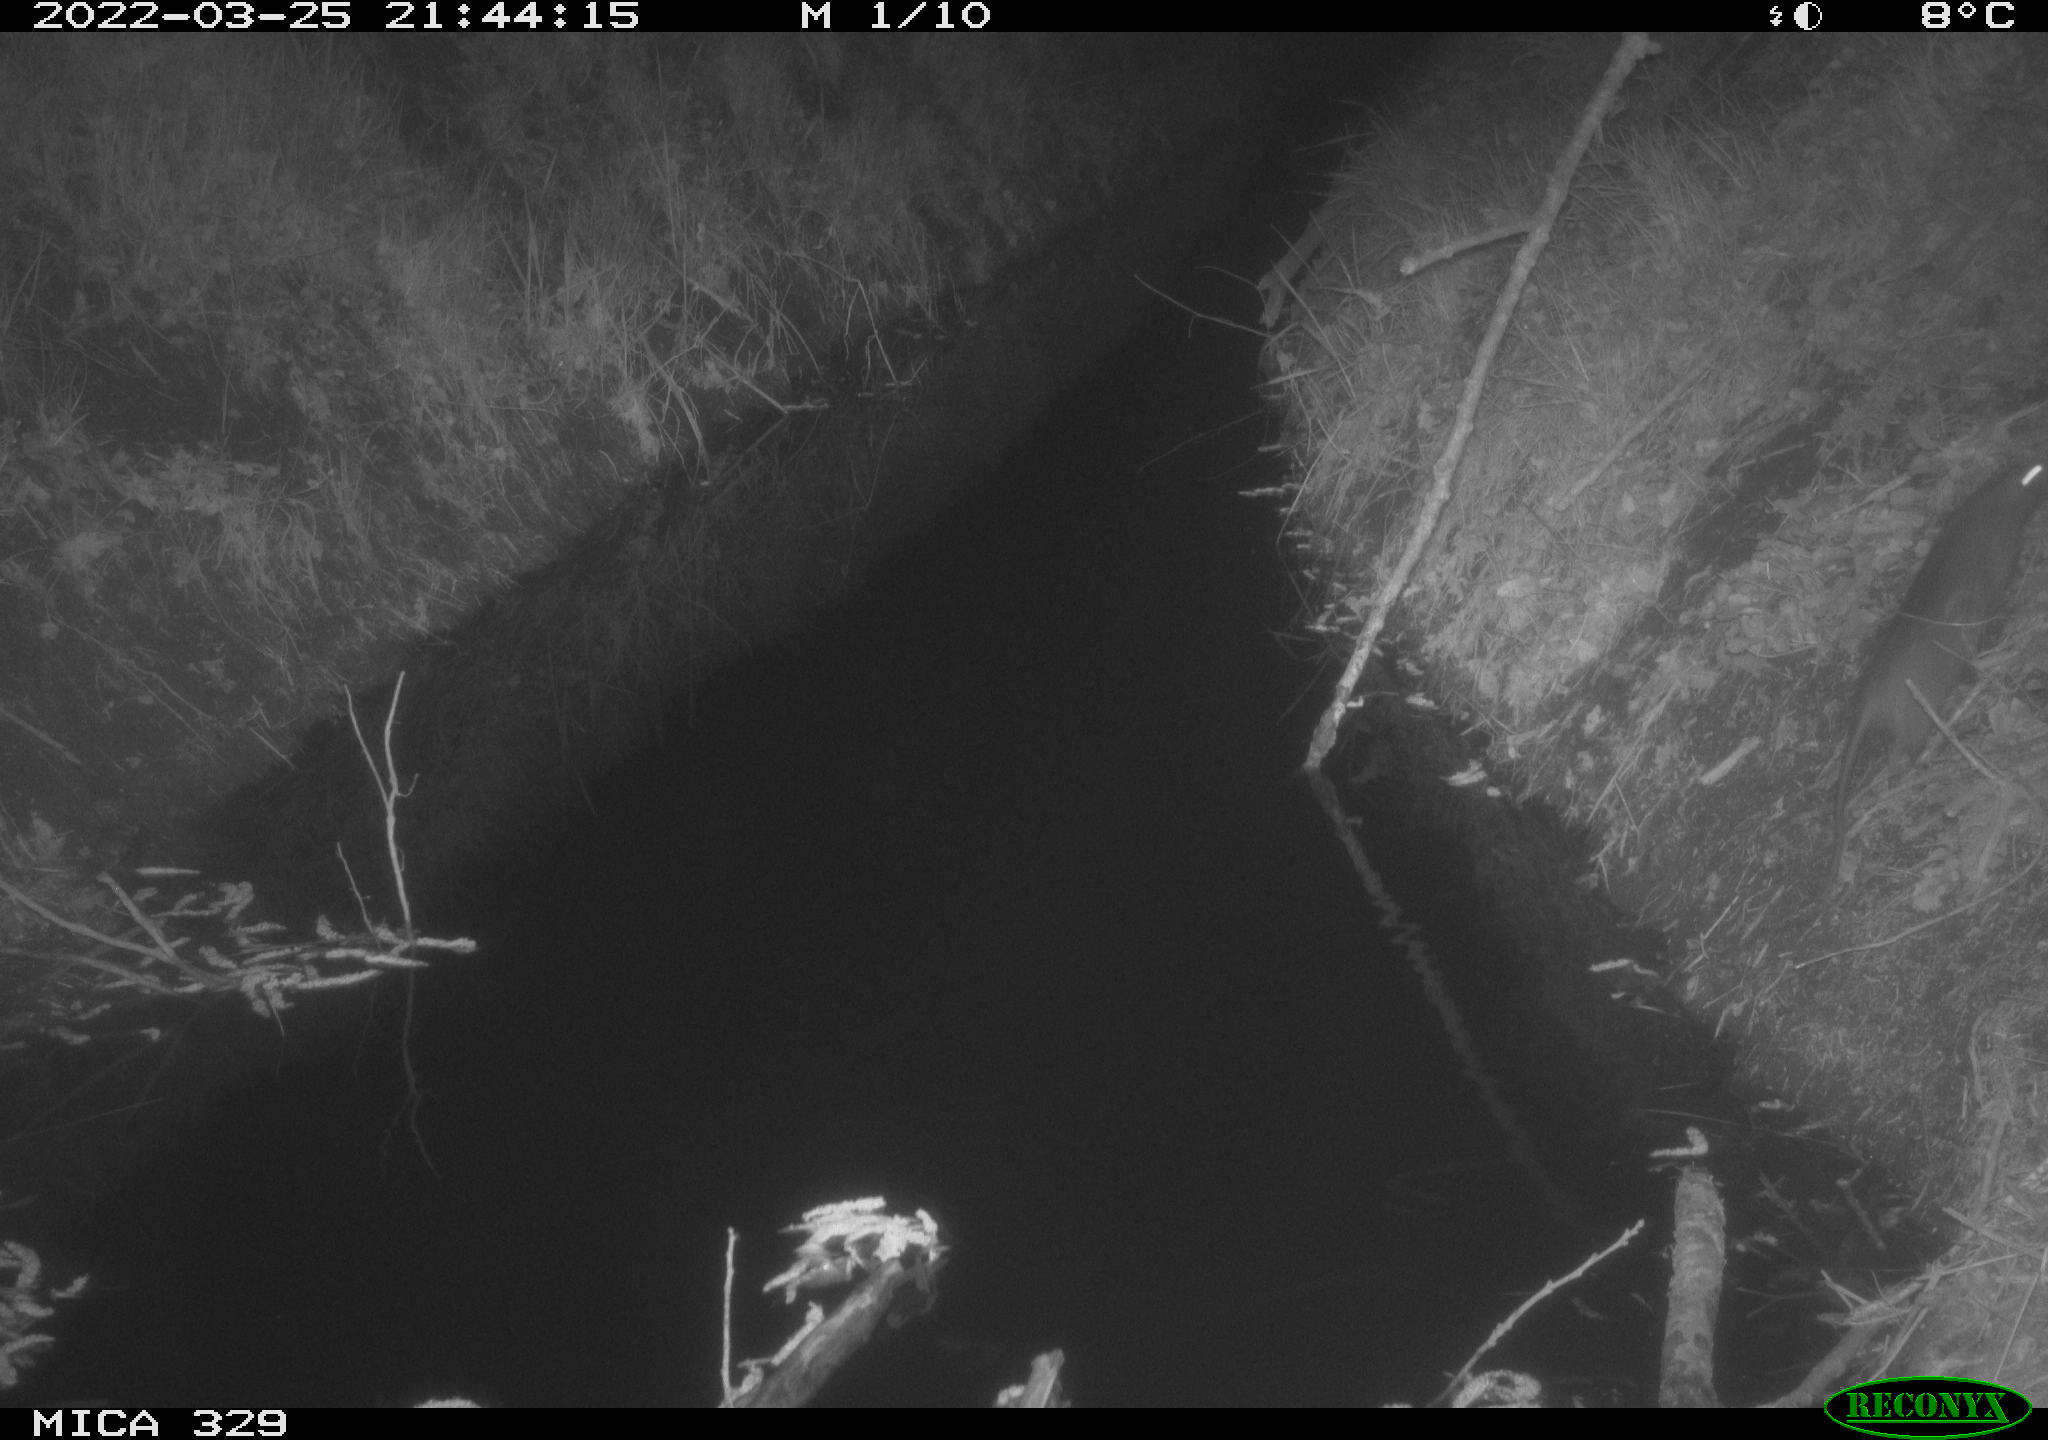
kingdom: Animalia
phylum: Chordata
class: Mammalia
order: Rodentia
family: Muridae
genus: Rattus
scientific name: Rattus norvegicus
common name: Brown rat
